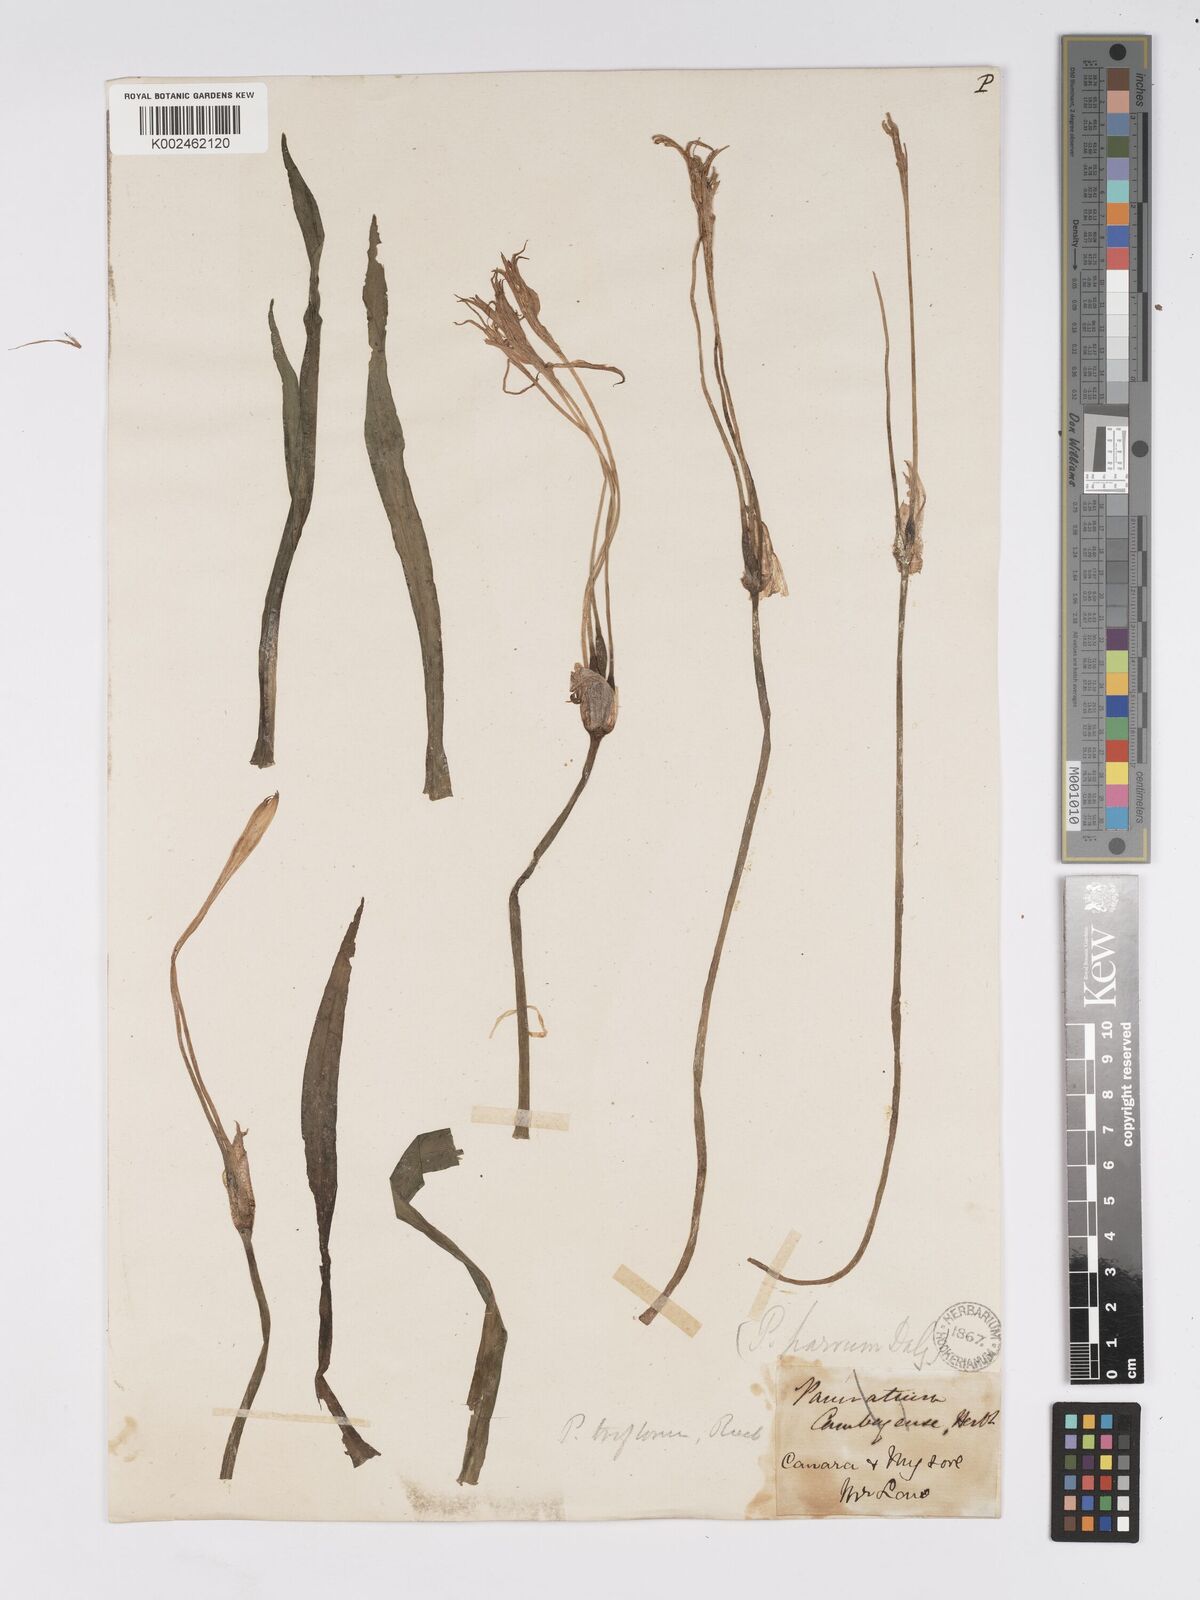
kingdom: Plantae
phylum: Tracheophyta
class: Liliopsida
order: Asparagales
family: Amaryllidaceae
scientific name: Amaryllidaceae
